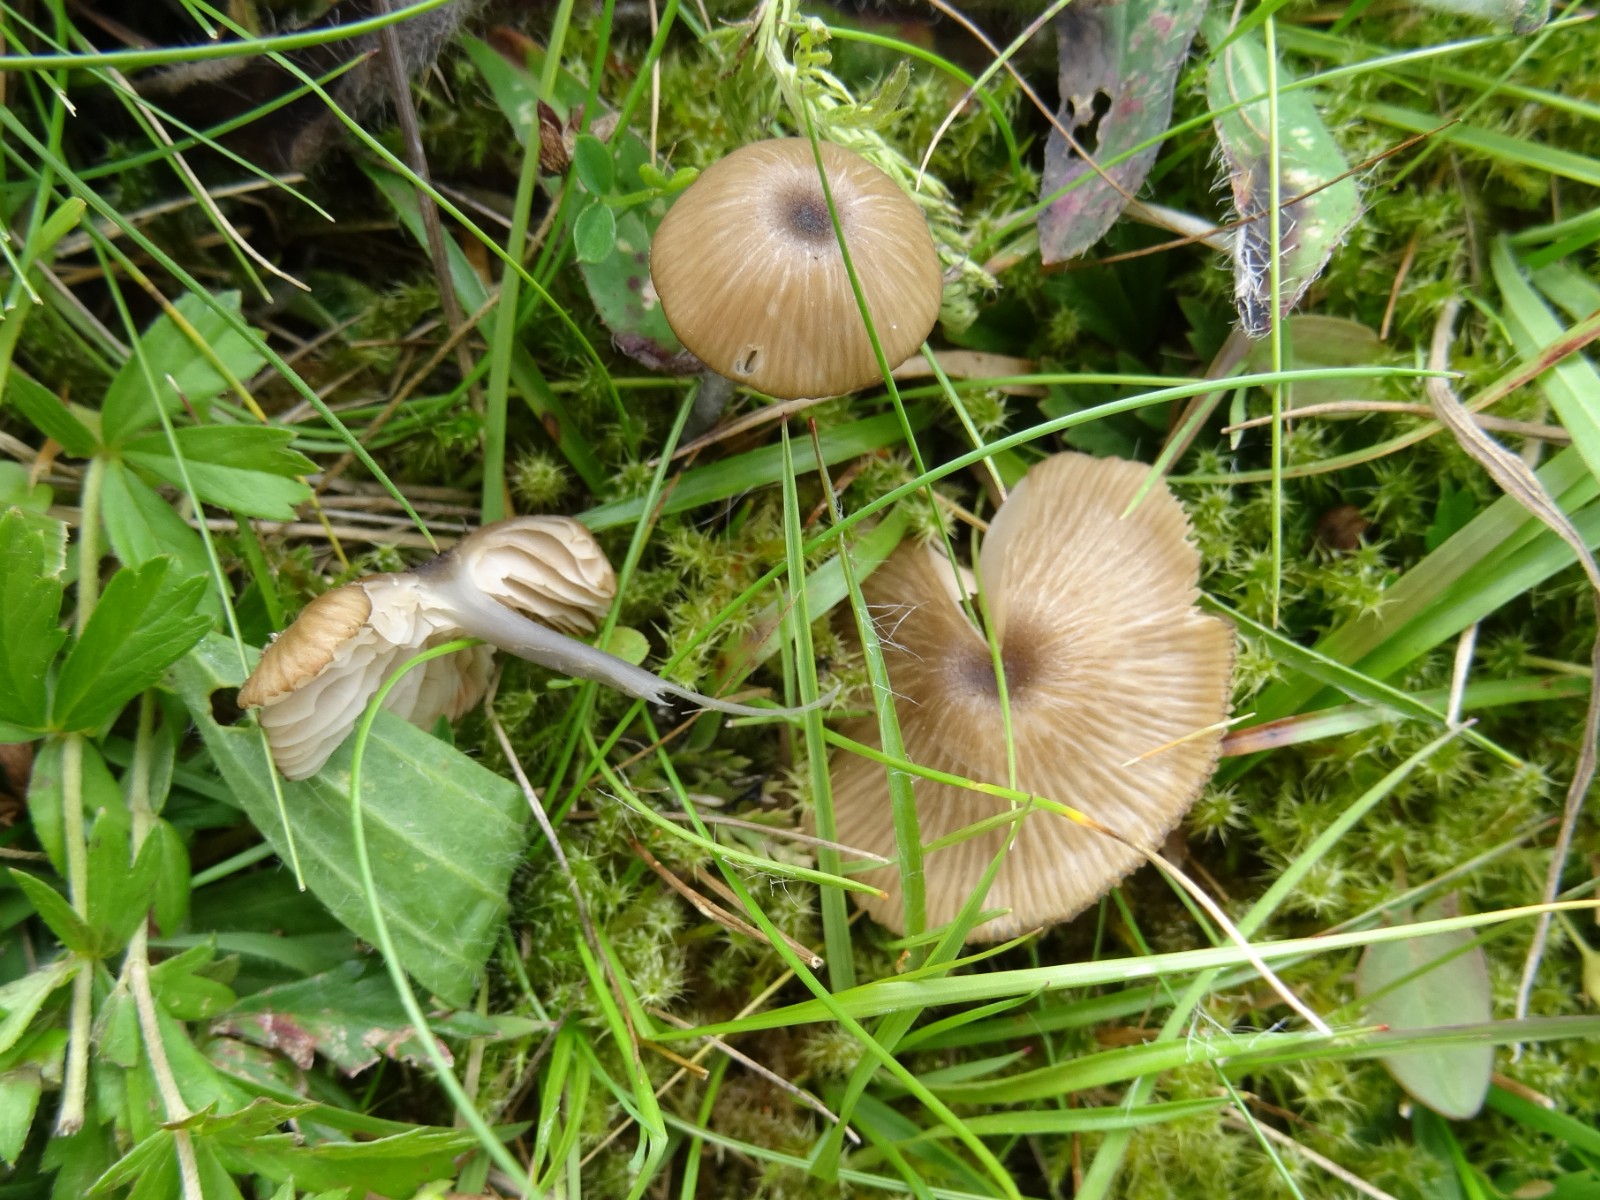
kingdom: Fungi
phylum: Basidiomycota
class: Agaricomycetes
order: Agaricales
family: Entolomataceae
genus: Entoloma
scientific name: Entoloma
